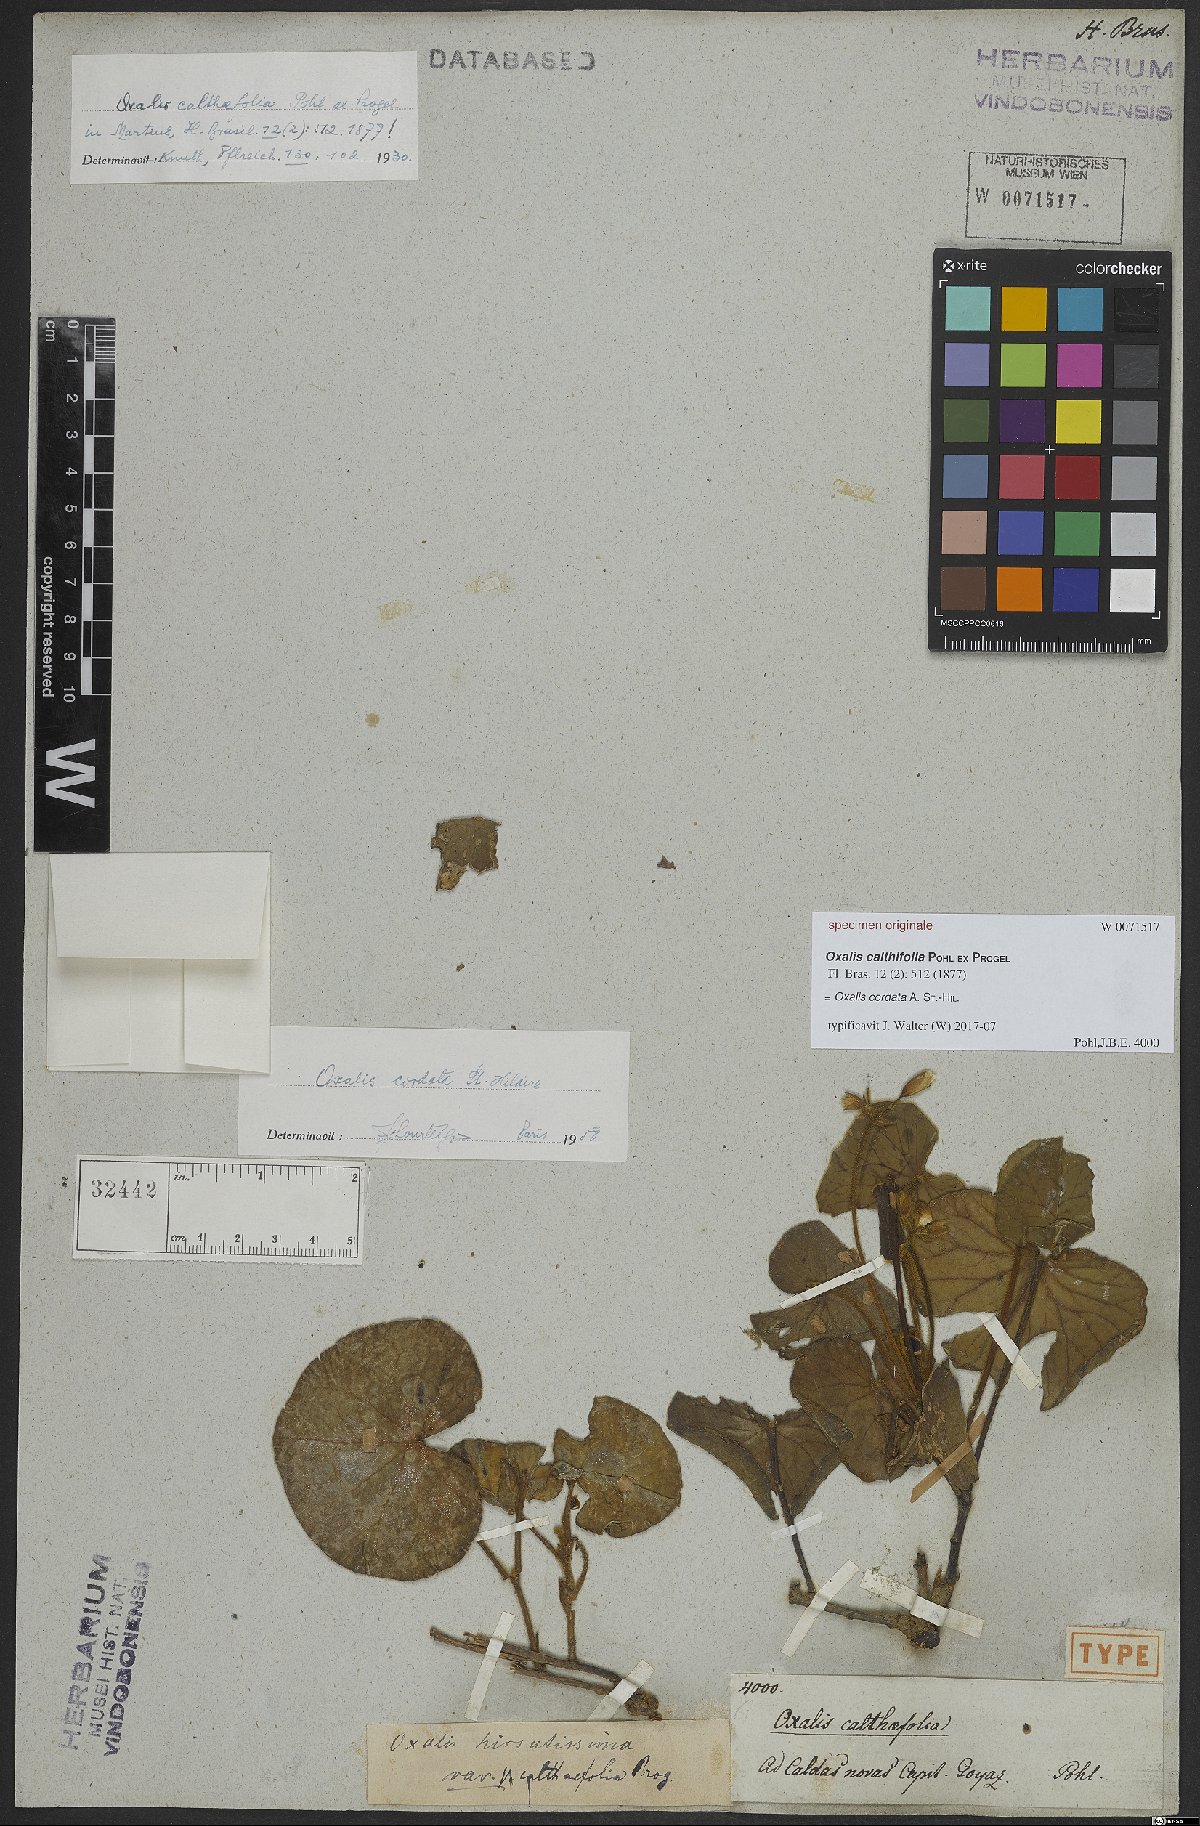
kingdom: Plantae
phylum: Tracheophyta
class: Magnoliopsida
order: Oxalidales
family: Oxalidaceae
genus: Oxalis
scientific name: Oxalis cordata
